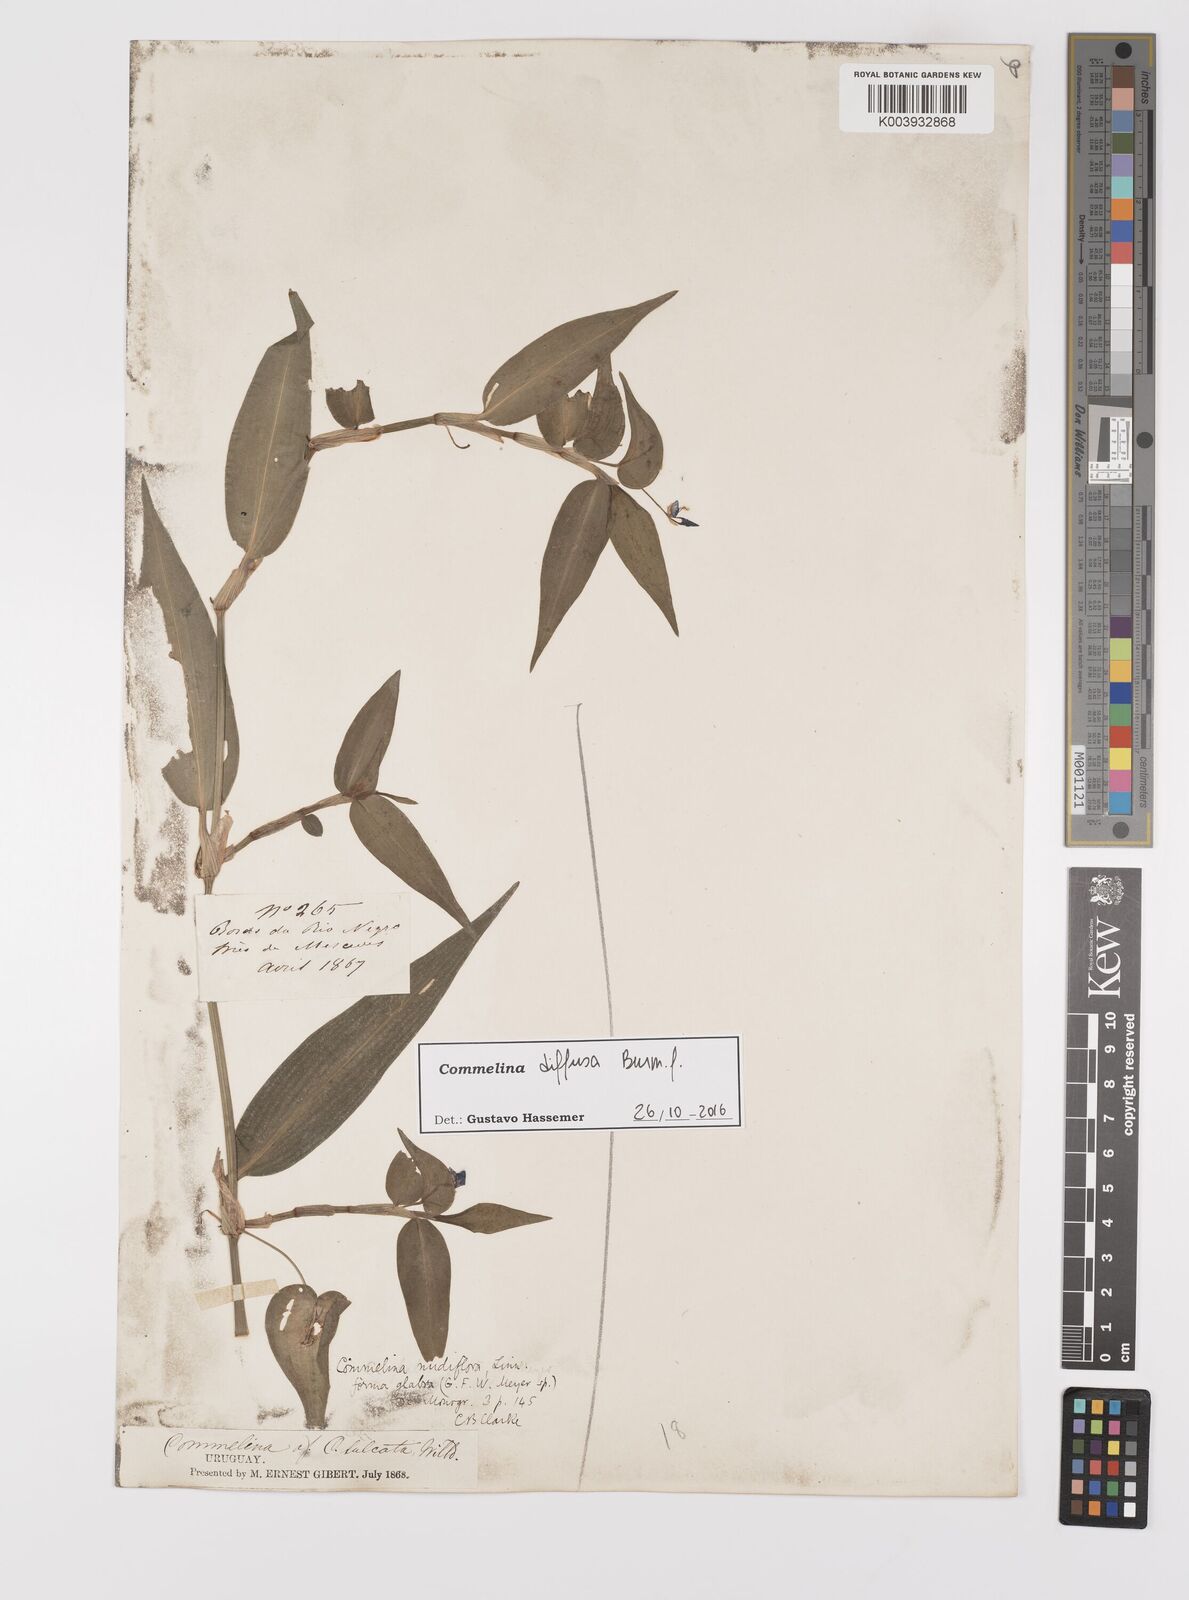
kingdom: Plantae
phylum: Tracheophyta
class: Liliopsida
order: Commelinales
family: Commelinaceae
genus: Commelina
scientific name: Commelina diffusa
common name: Climbing dayflower
